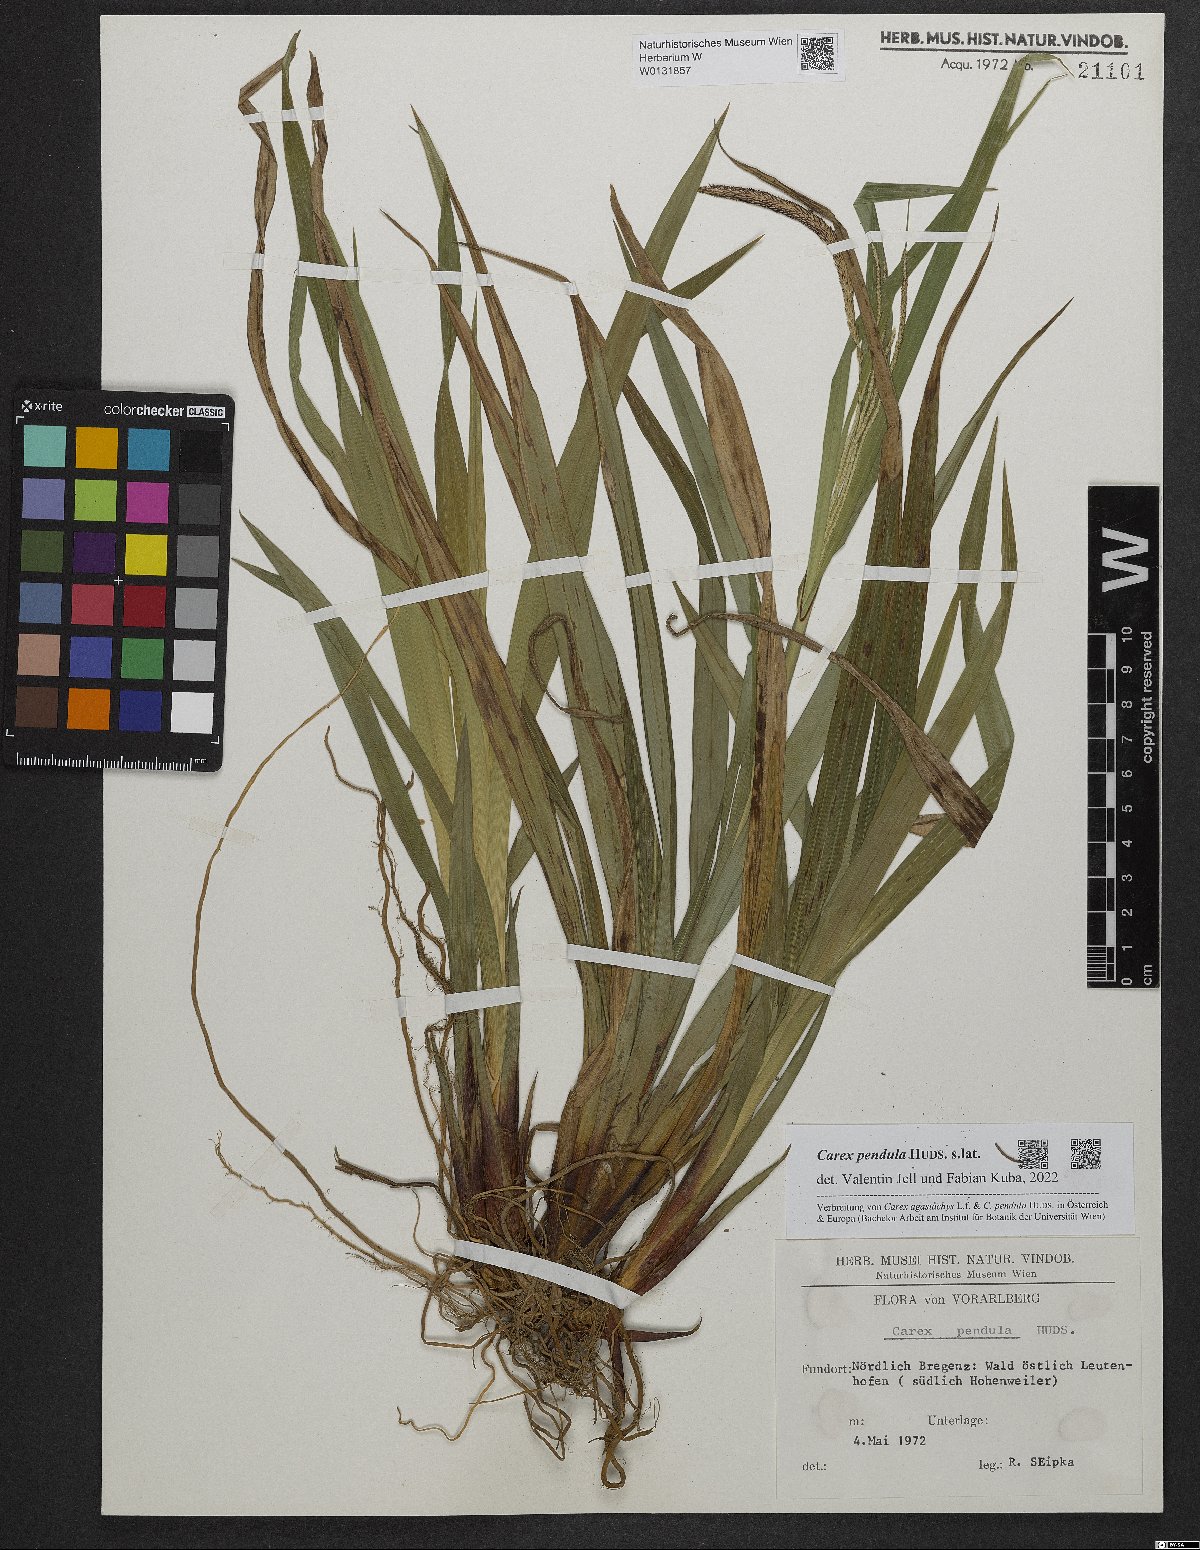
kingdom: Plantae
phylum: Tracheophyta
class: Liliopsida
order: Poales
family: Cyperaceae
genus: Carex
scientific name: Carex pendula
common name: Pendulous sedge
